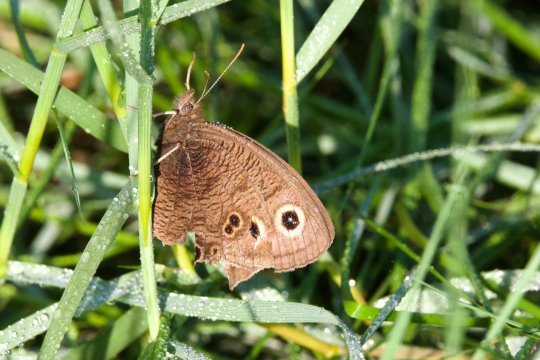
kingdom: Animalia
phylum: Arthropoda
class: Insecta
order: Lepidoptera
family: Nymphalidae
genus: Cercyonis
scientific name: Cercyonis pegala
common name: Common Wood-Nymph
